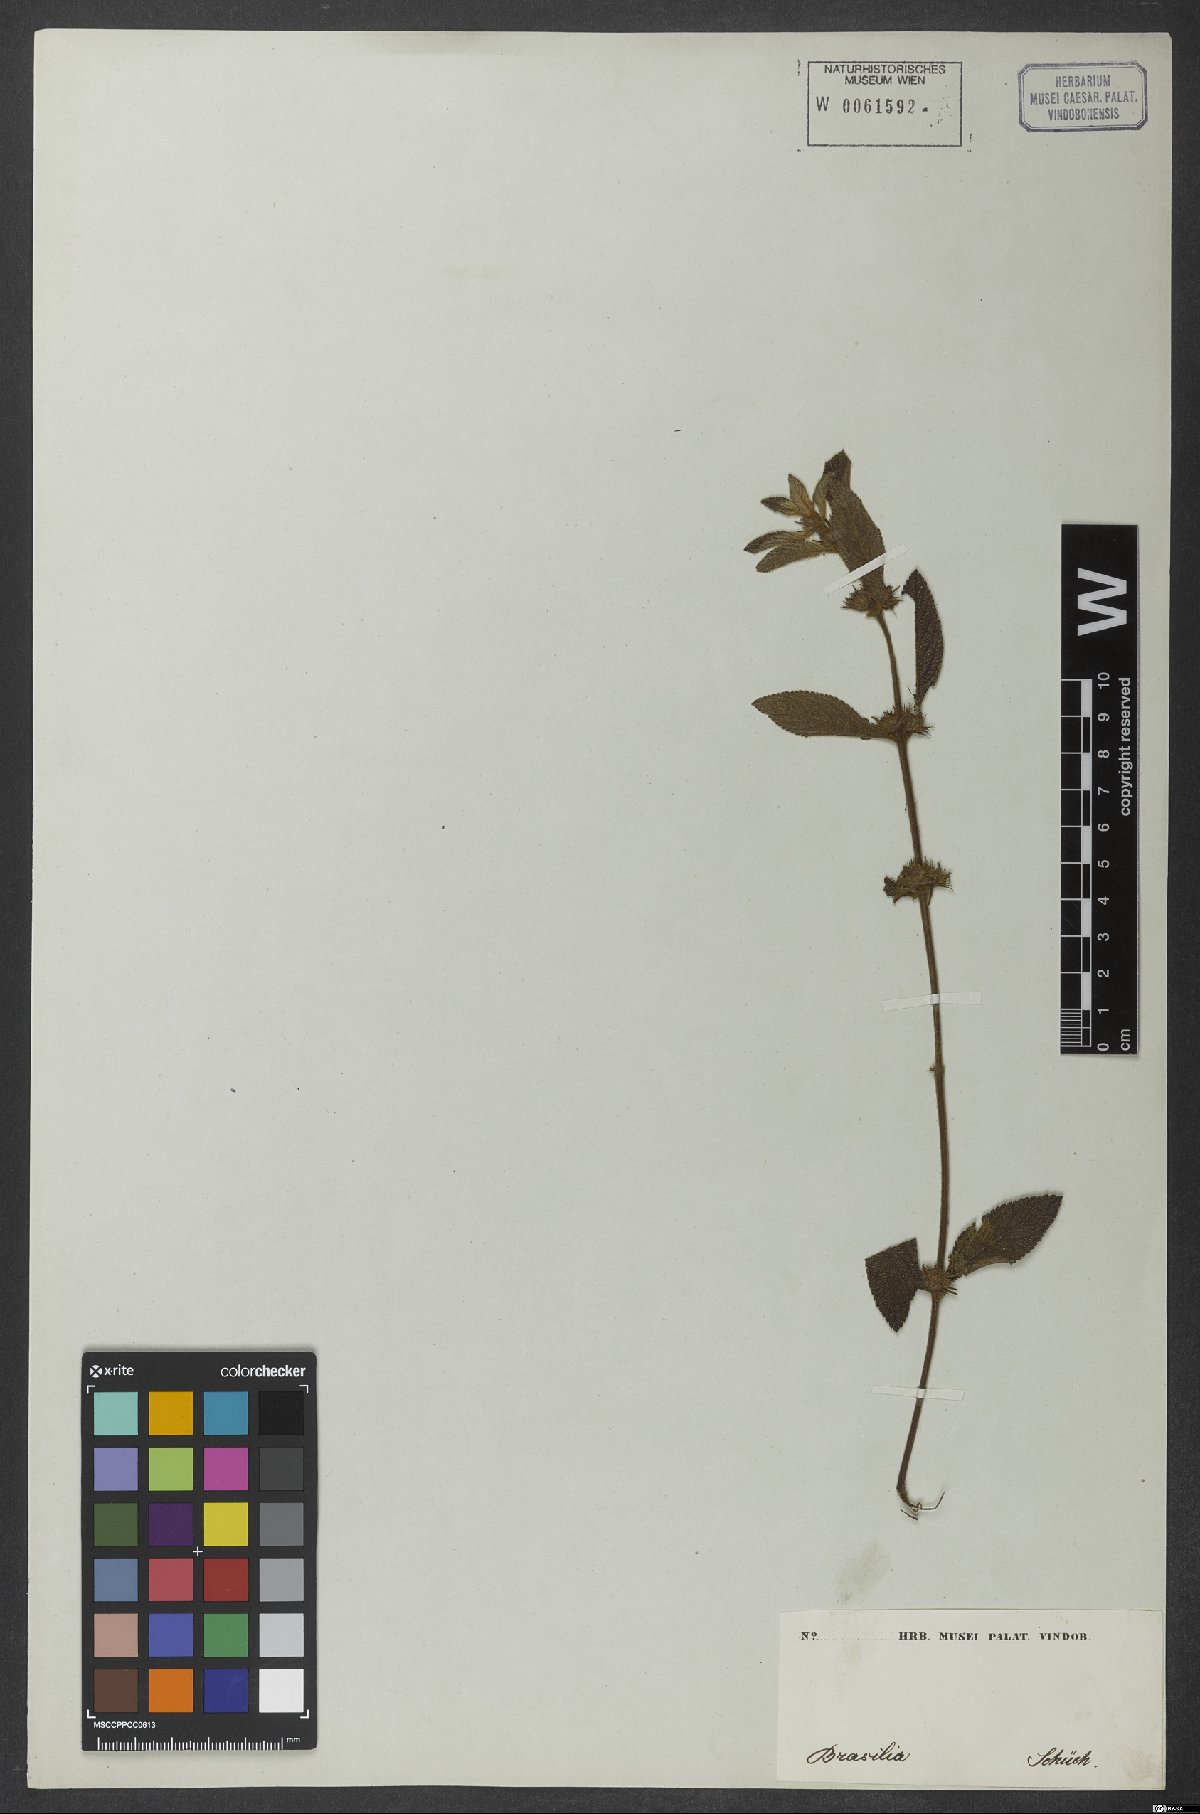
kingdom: Plantae
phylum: Tracheophyta
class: Magnoliopsida
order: Lamiales
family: Lamiaceae
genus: Hyptis
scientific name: Hyptis homalophylla
